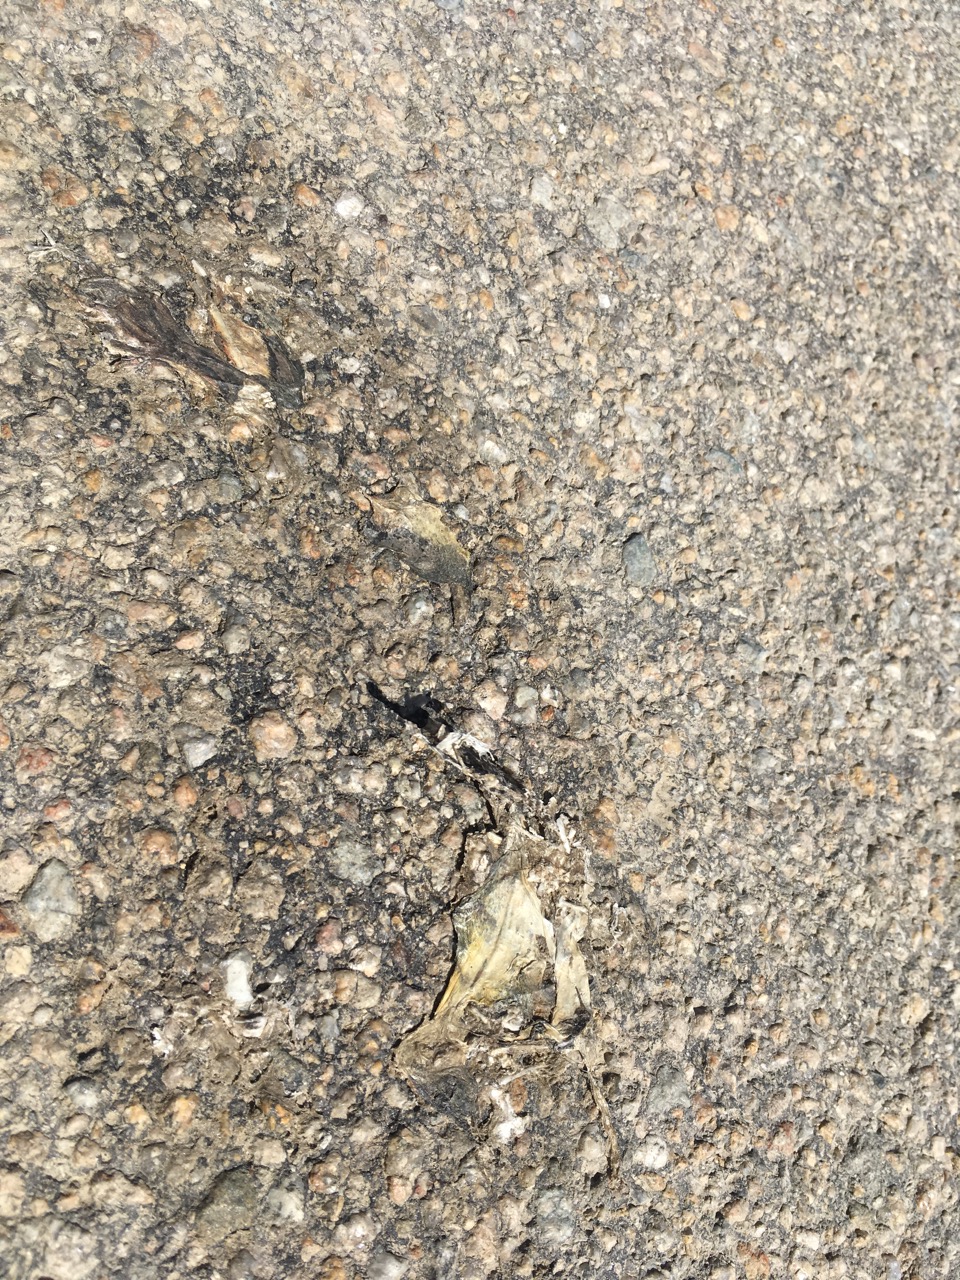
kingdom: Animalia
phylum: Chordata
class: Amphibia
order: Anura
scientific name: Anura
